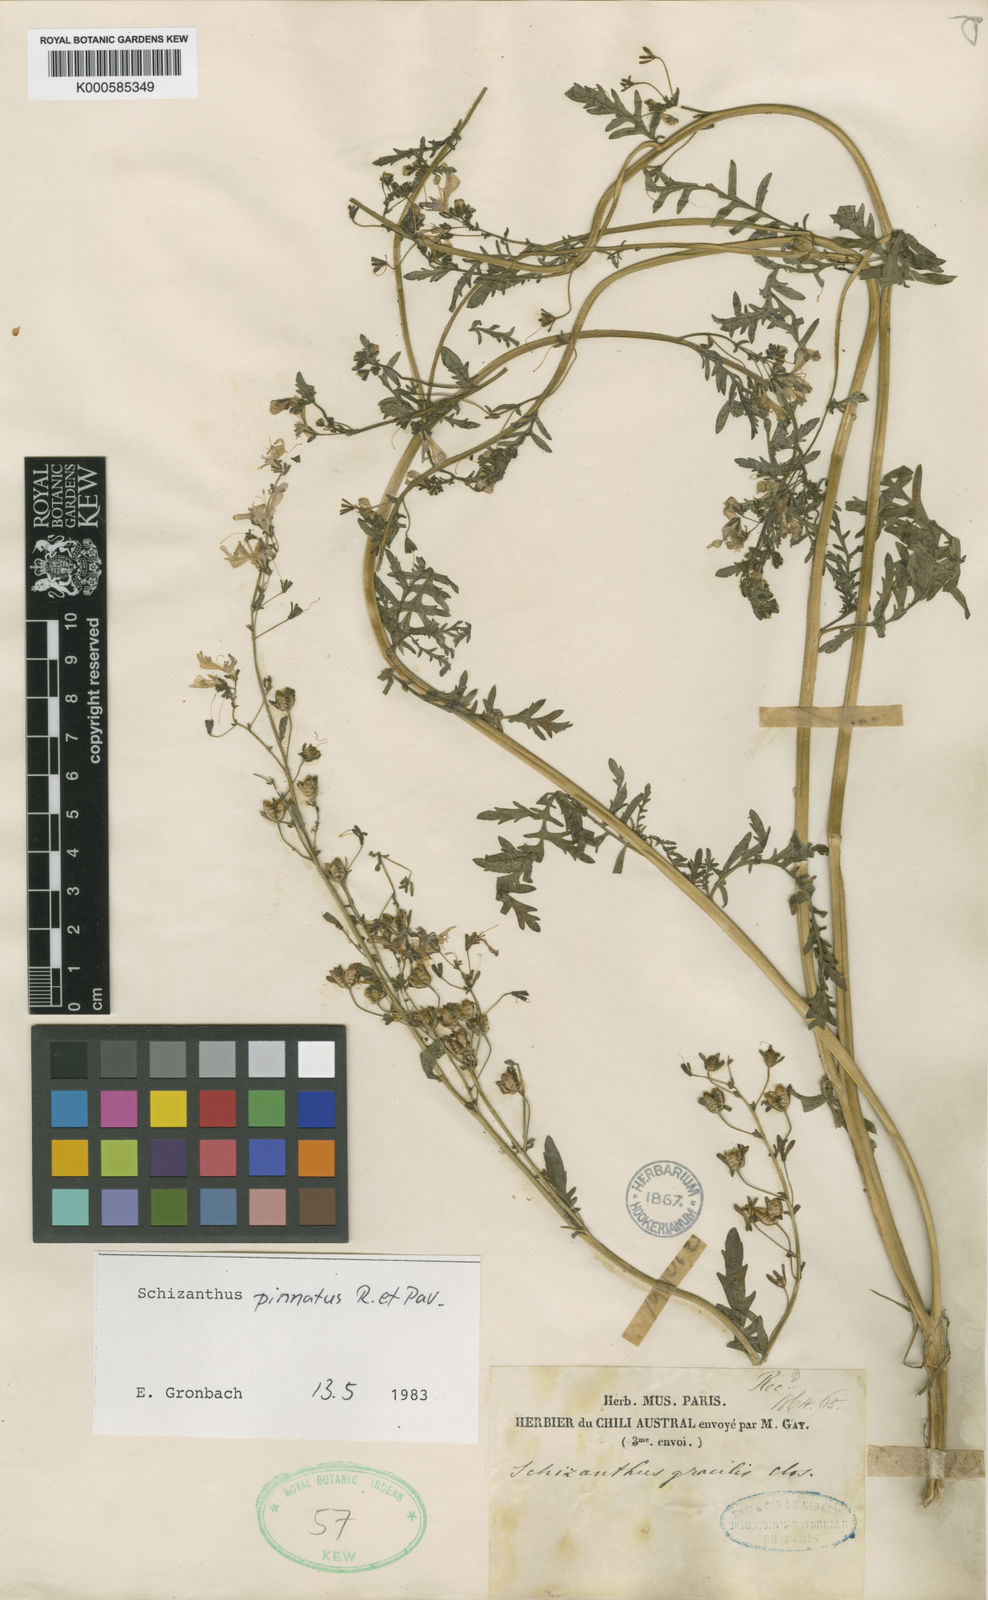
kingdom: Plantae
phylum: Tracheophyta
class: Magnoliopsida
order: Solanales
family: Solanaceae
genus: Schizanthus
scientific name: Schizanthus pinnatus
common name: Poor-man's-orchid
